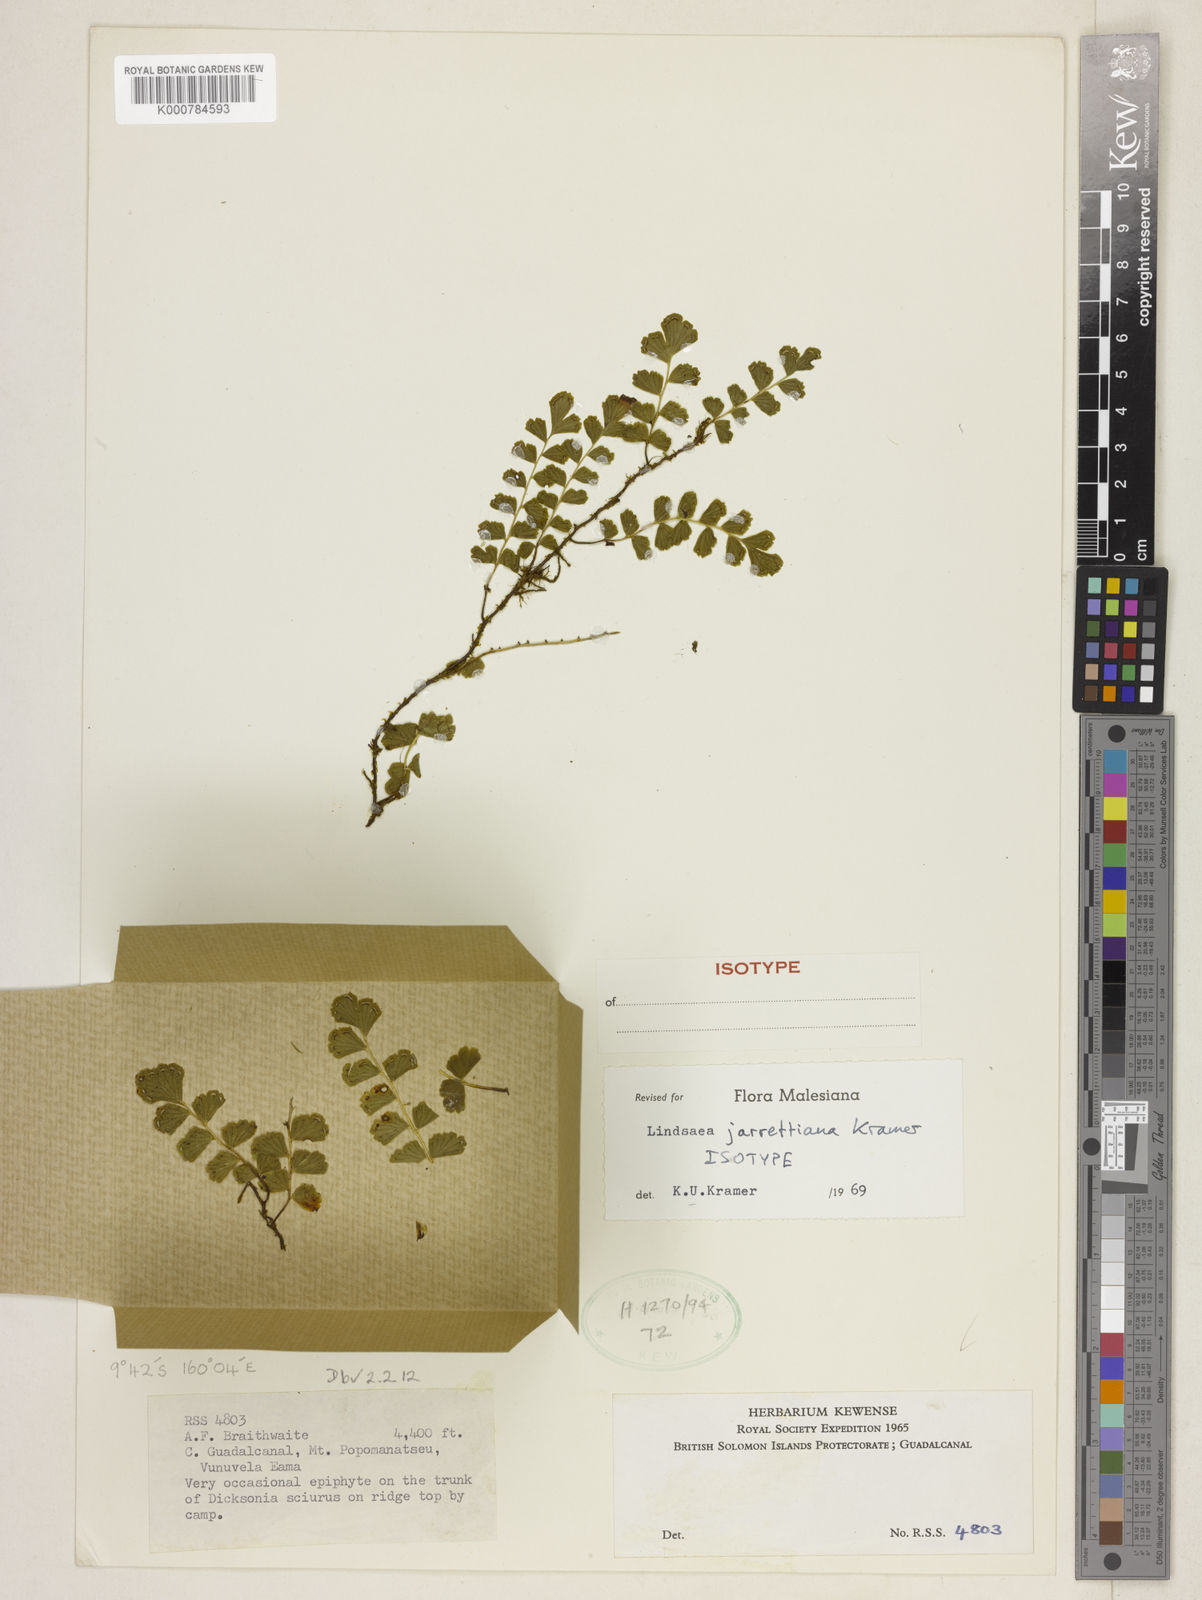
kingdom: Plantae
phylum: Tracheophyta
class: Polypodiopsida
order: Polypodiales
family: Lindsaeaceae
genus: Lindsaea
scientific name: Lindsaea jarrettiana
